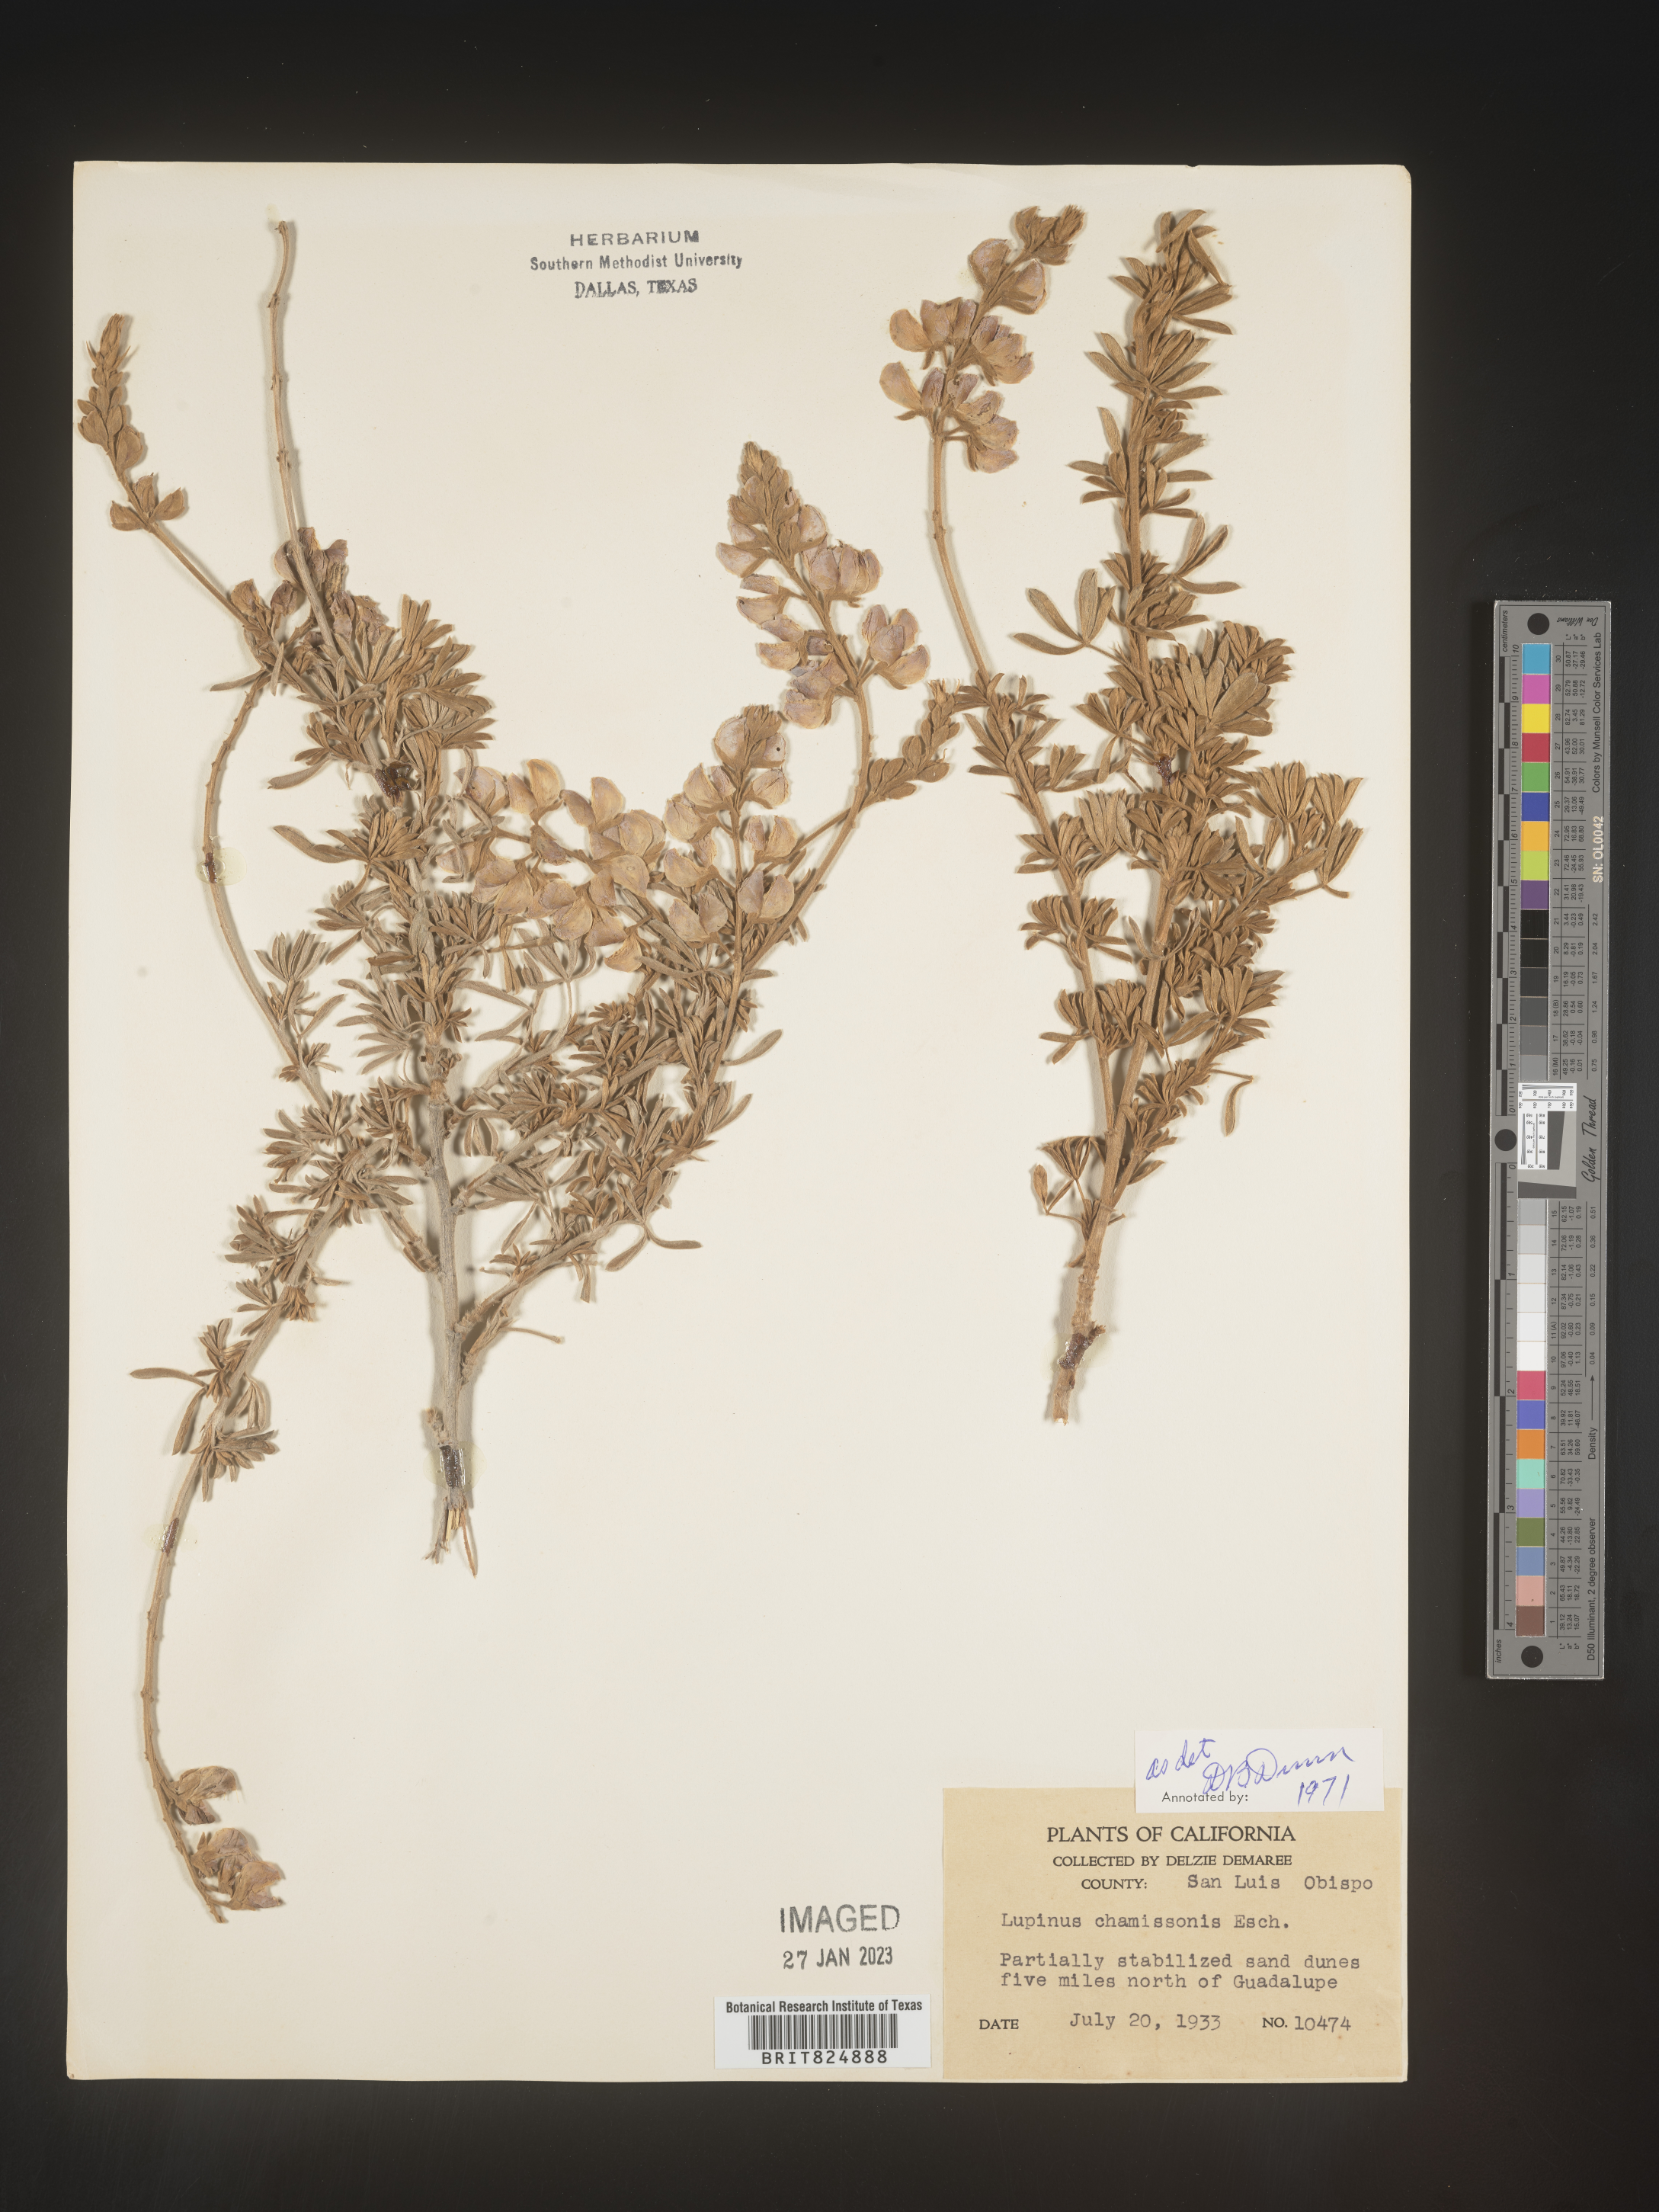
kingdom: Plantae
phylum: Tracheophyta
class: Magnoliopsida
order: Fabales
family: Fabaceae
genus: Lupinus
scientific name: Lupinus
